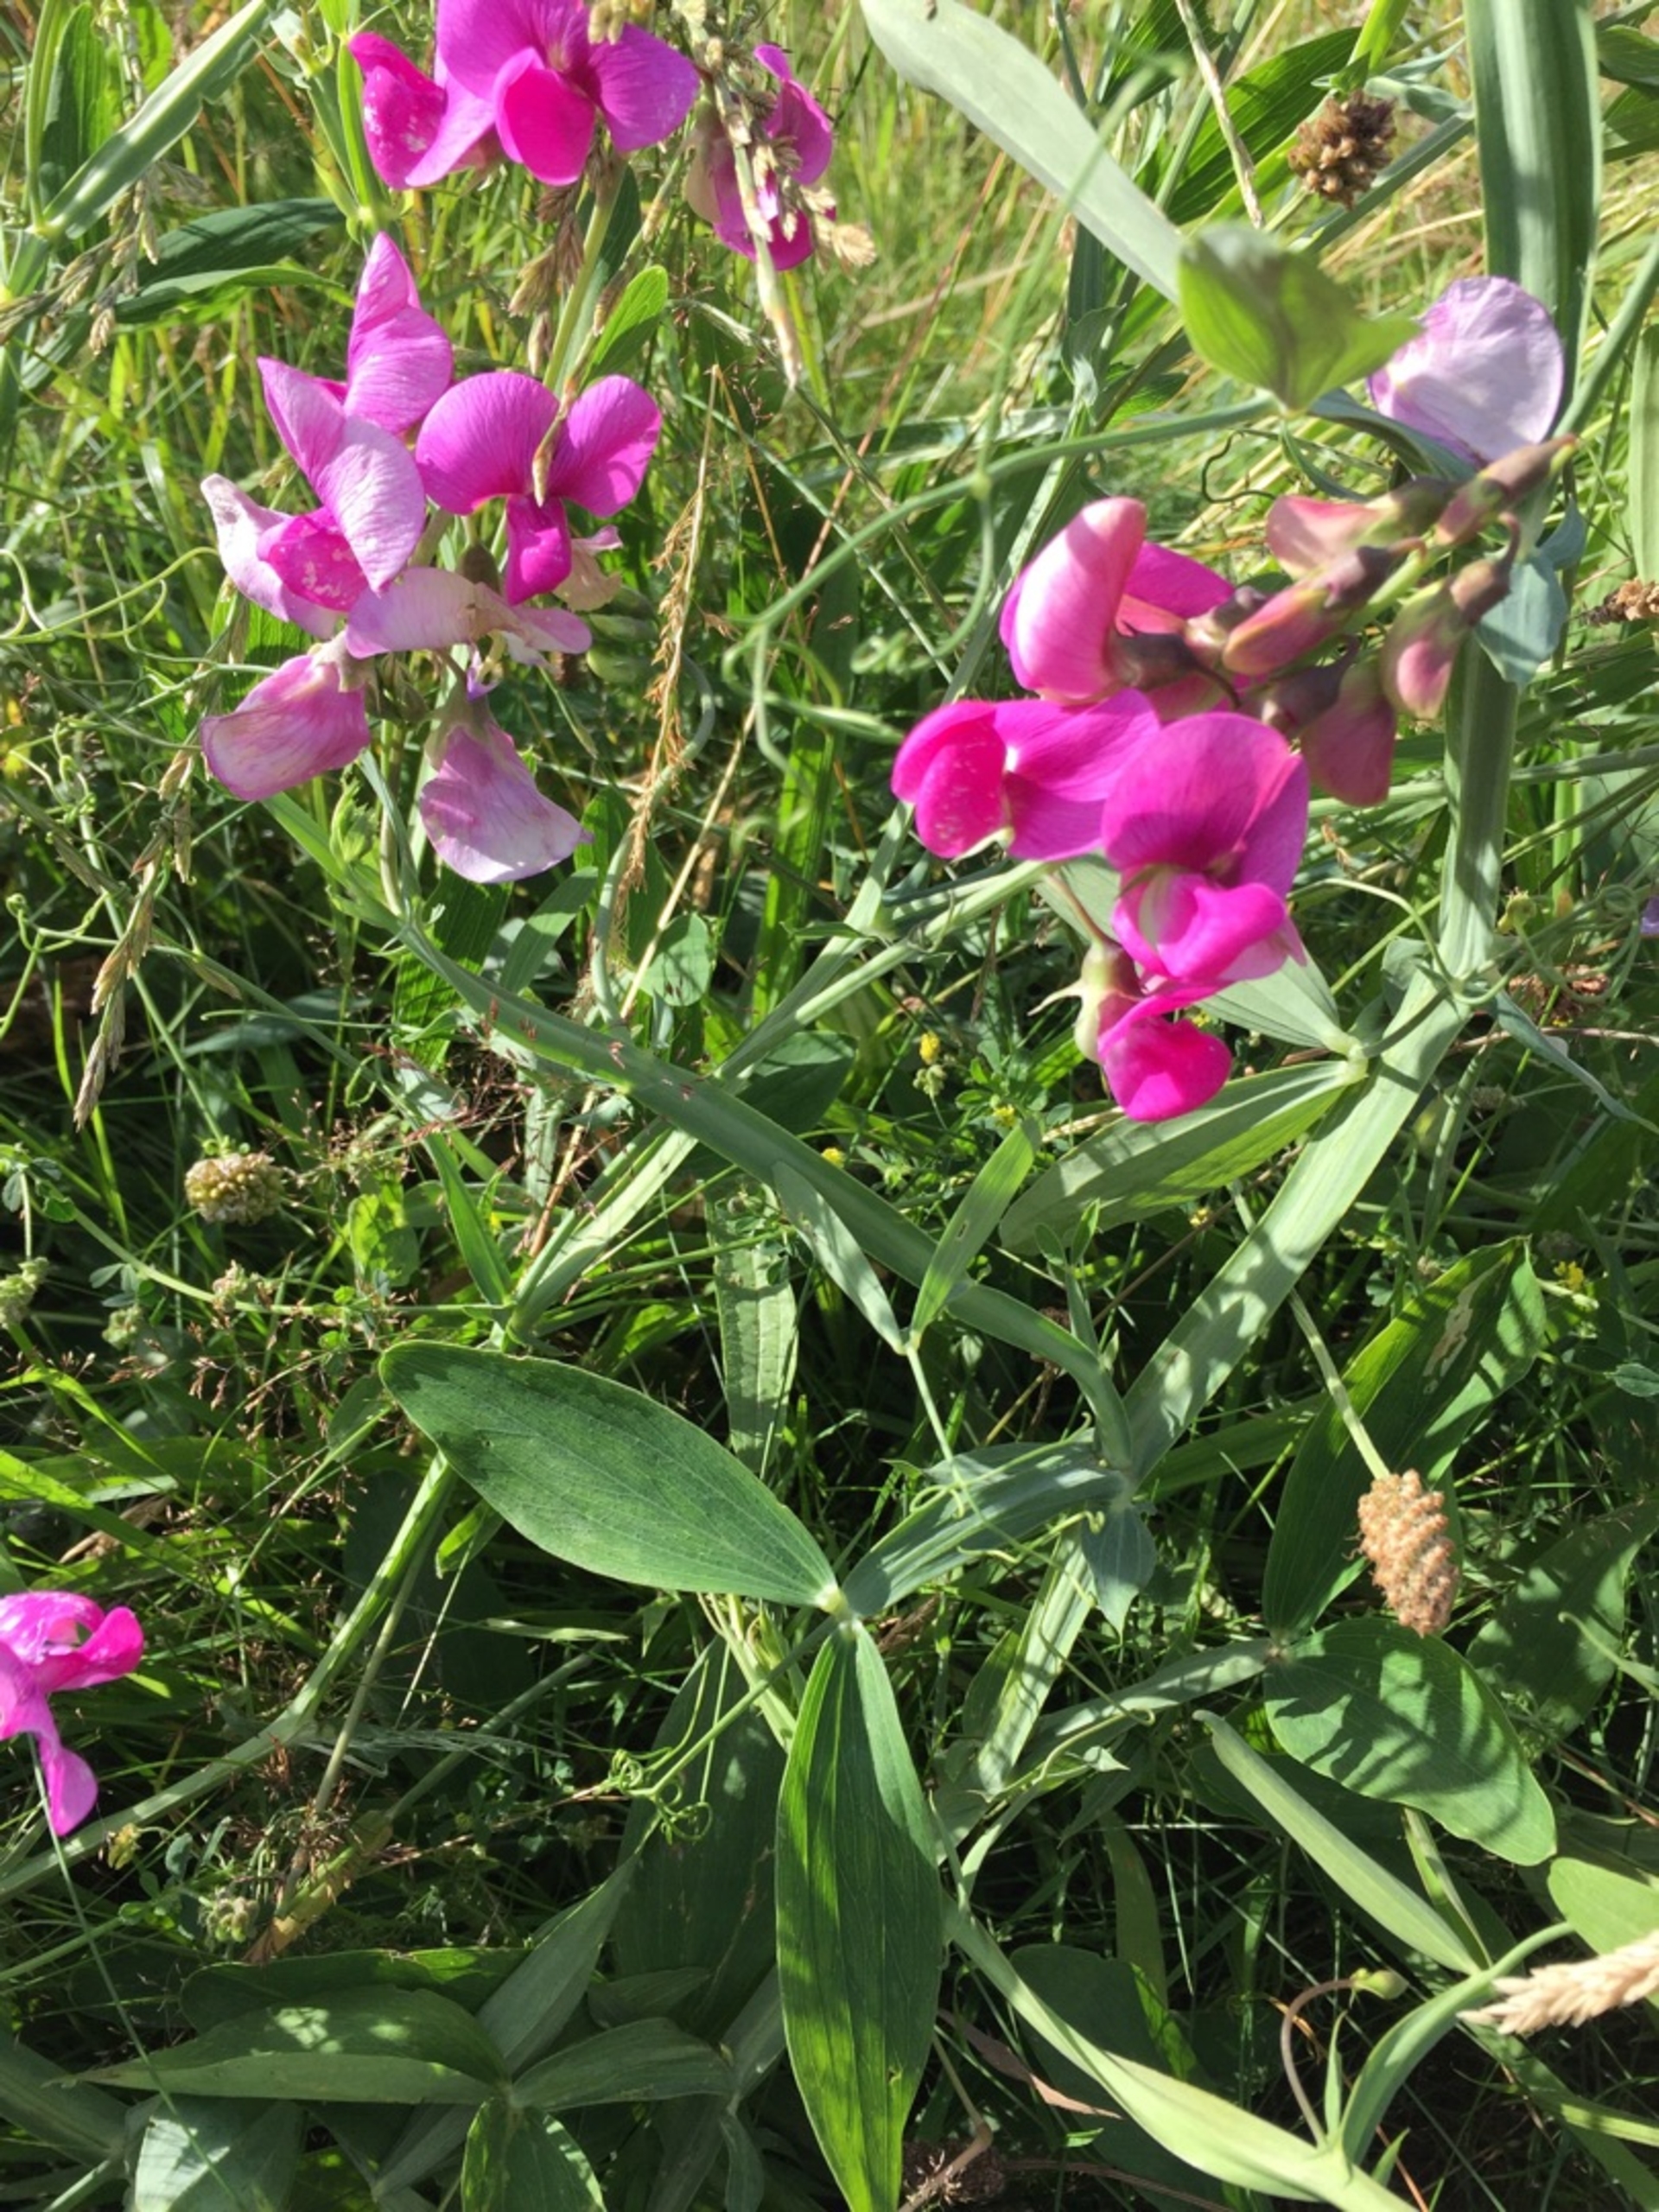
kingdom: Plantae
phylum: Tracheophyta
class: Magnoliopsida
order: Fabales
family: Fabaceae
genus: Lathyrus
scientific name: Lathyrus latifolius
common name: Flerårig ærteblomst
